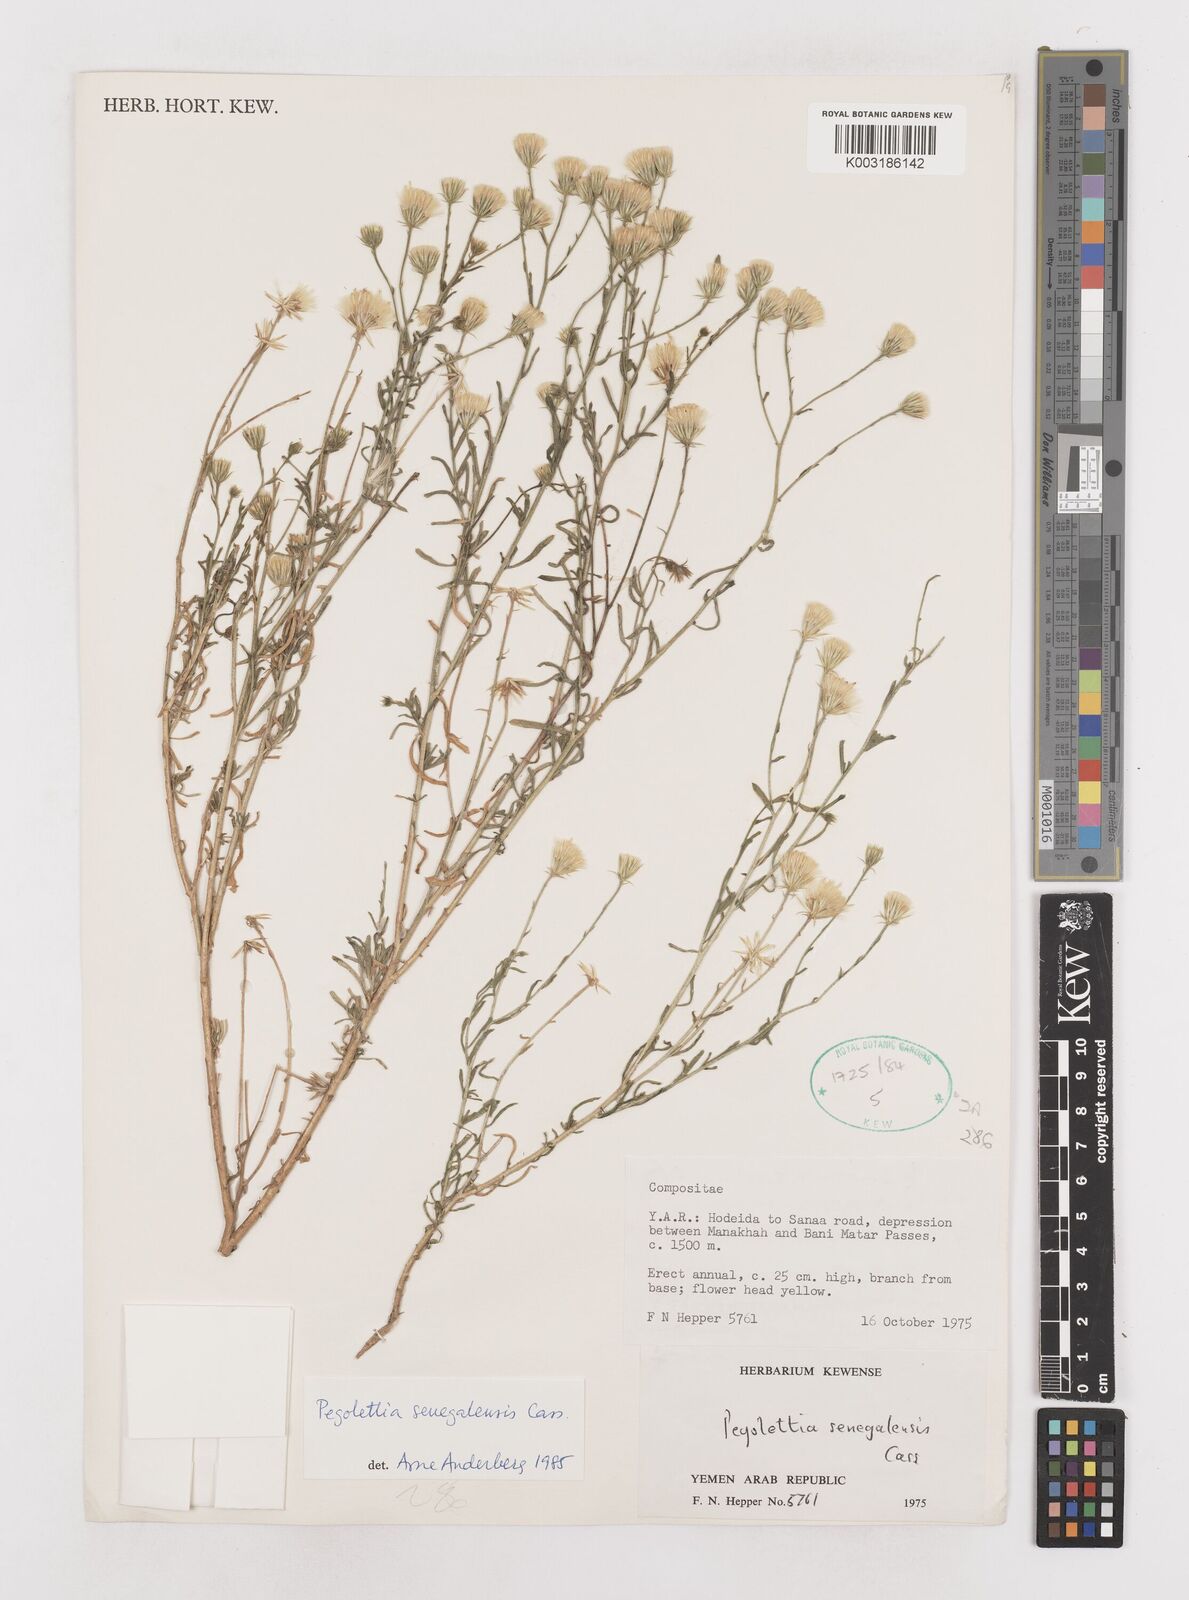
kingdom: Plantae
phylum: Tracheophyta
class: Magnoliopsida
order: Asterales
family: Asteraceae
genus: Pegolettia
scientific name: Pegolettia senegalensis
